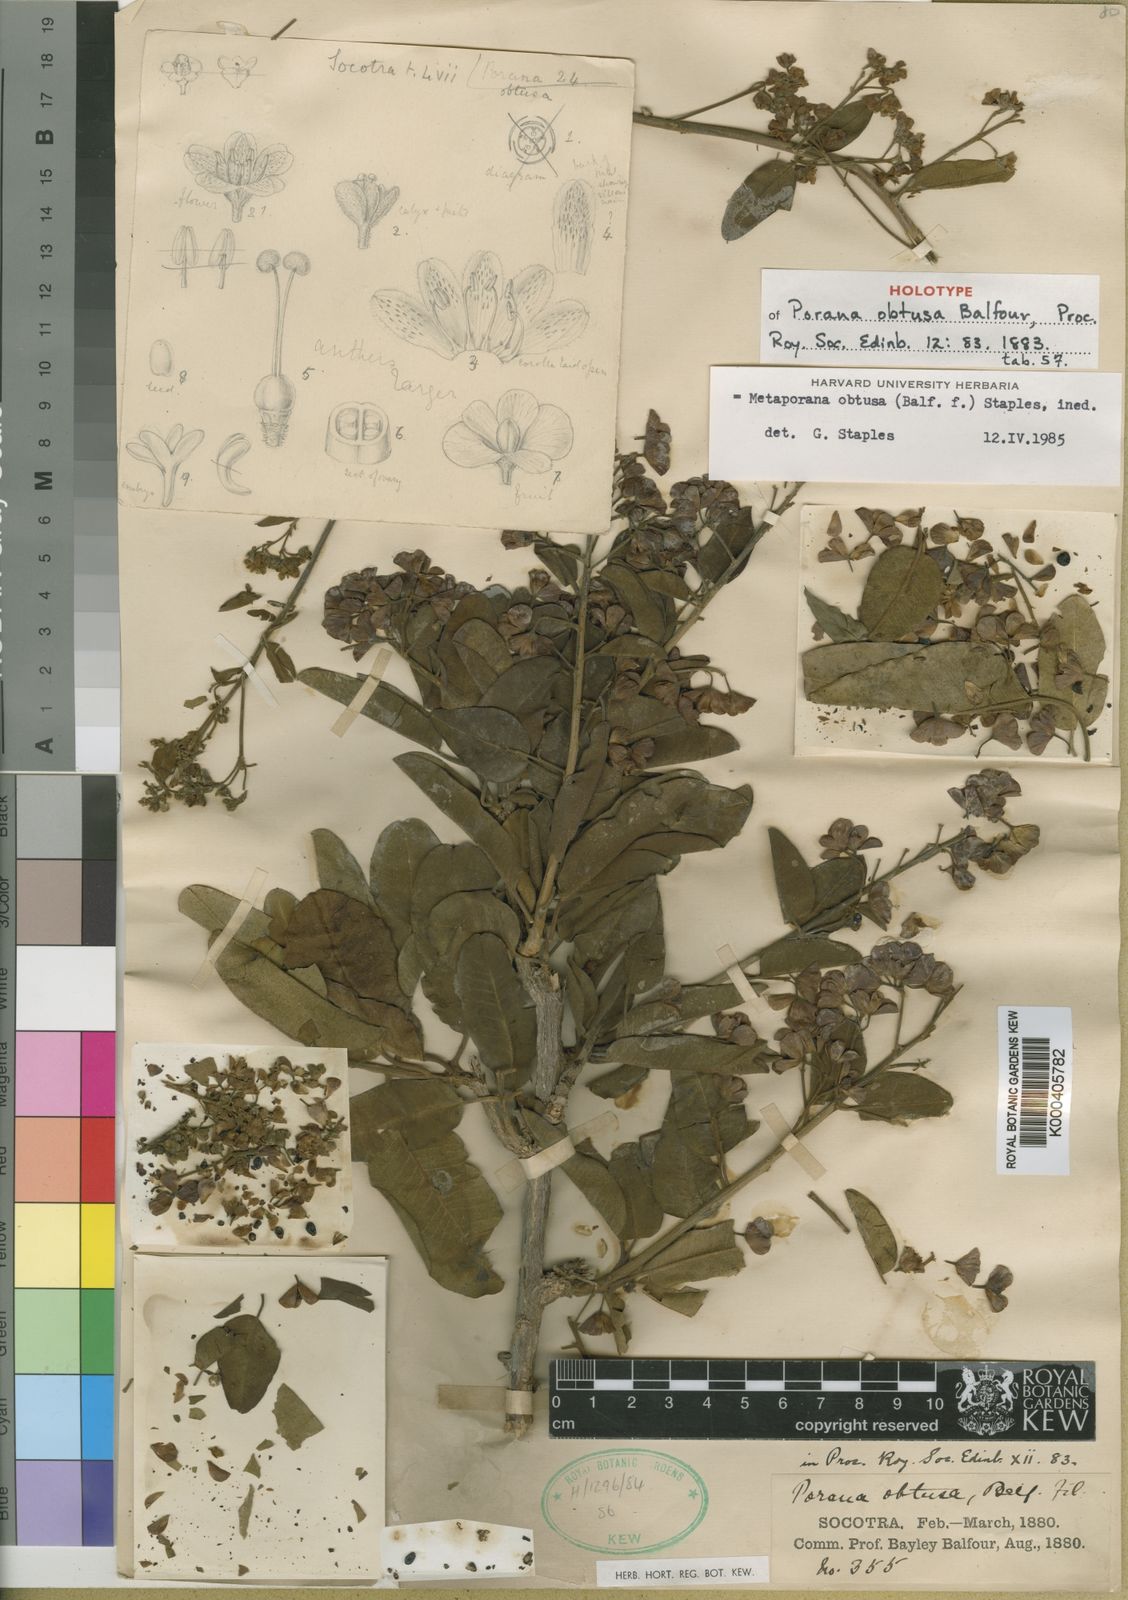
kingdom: Plantae
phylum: Tracheophyta
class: Magnoliopsida
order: Solanales
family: Convolvulaceae
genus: Metaporana
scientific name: Metaporana obtusa
